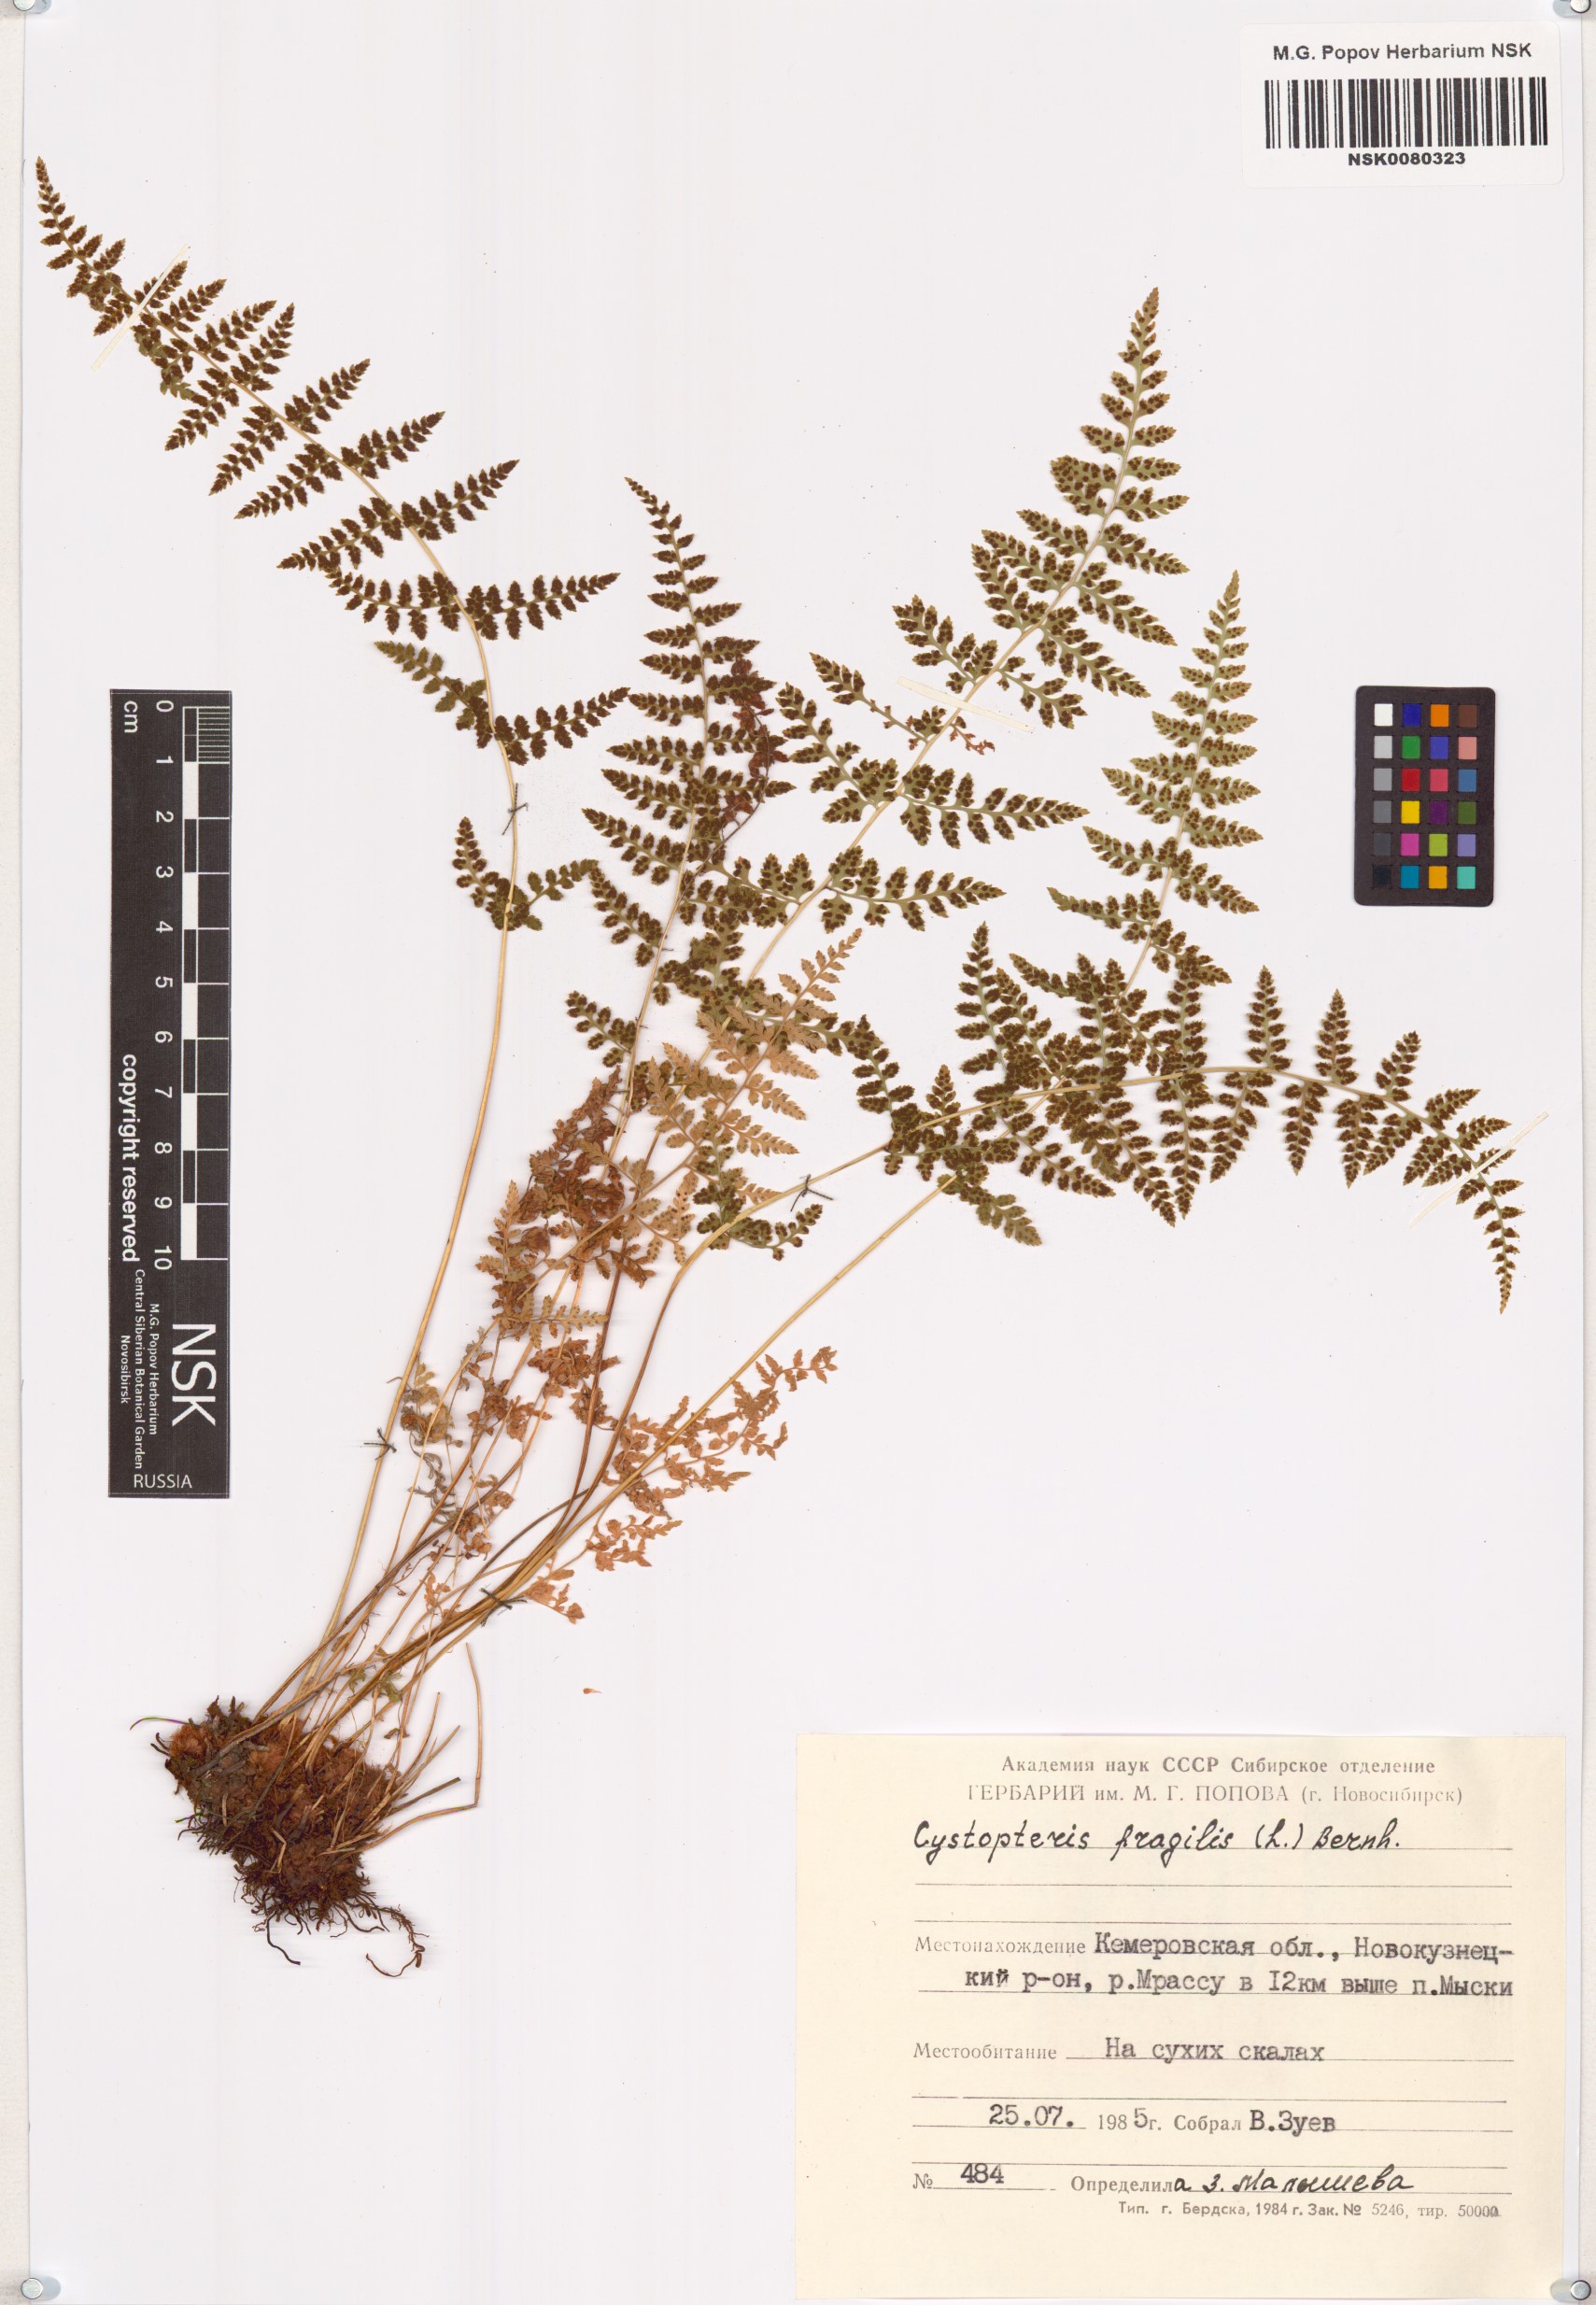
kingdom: Plantae
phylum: Tracheophyta
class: Polypodiopsida
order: Polypodiales
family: Cystopteridaceae
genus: Cystopteris
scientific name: Cystopteris fragilis
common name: Brittle bladder fern
